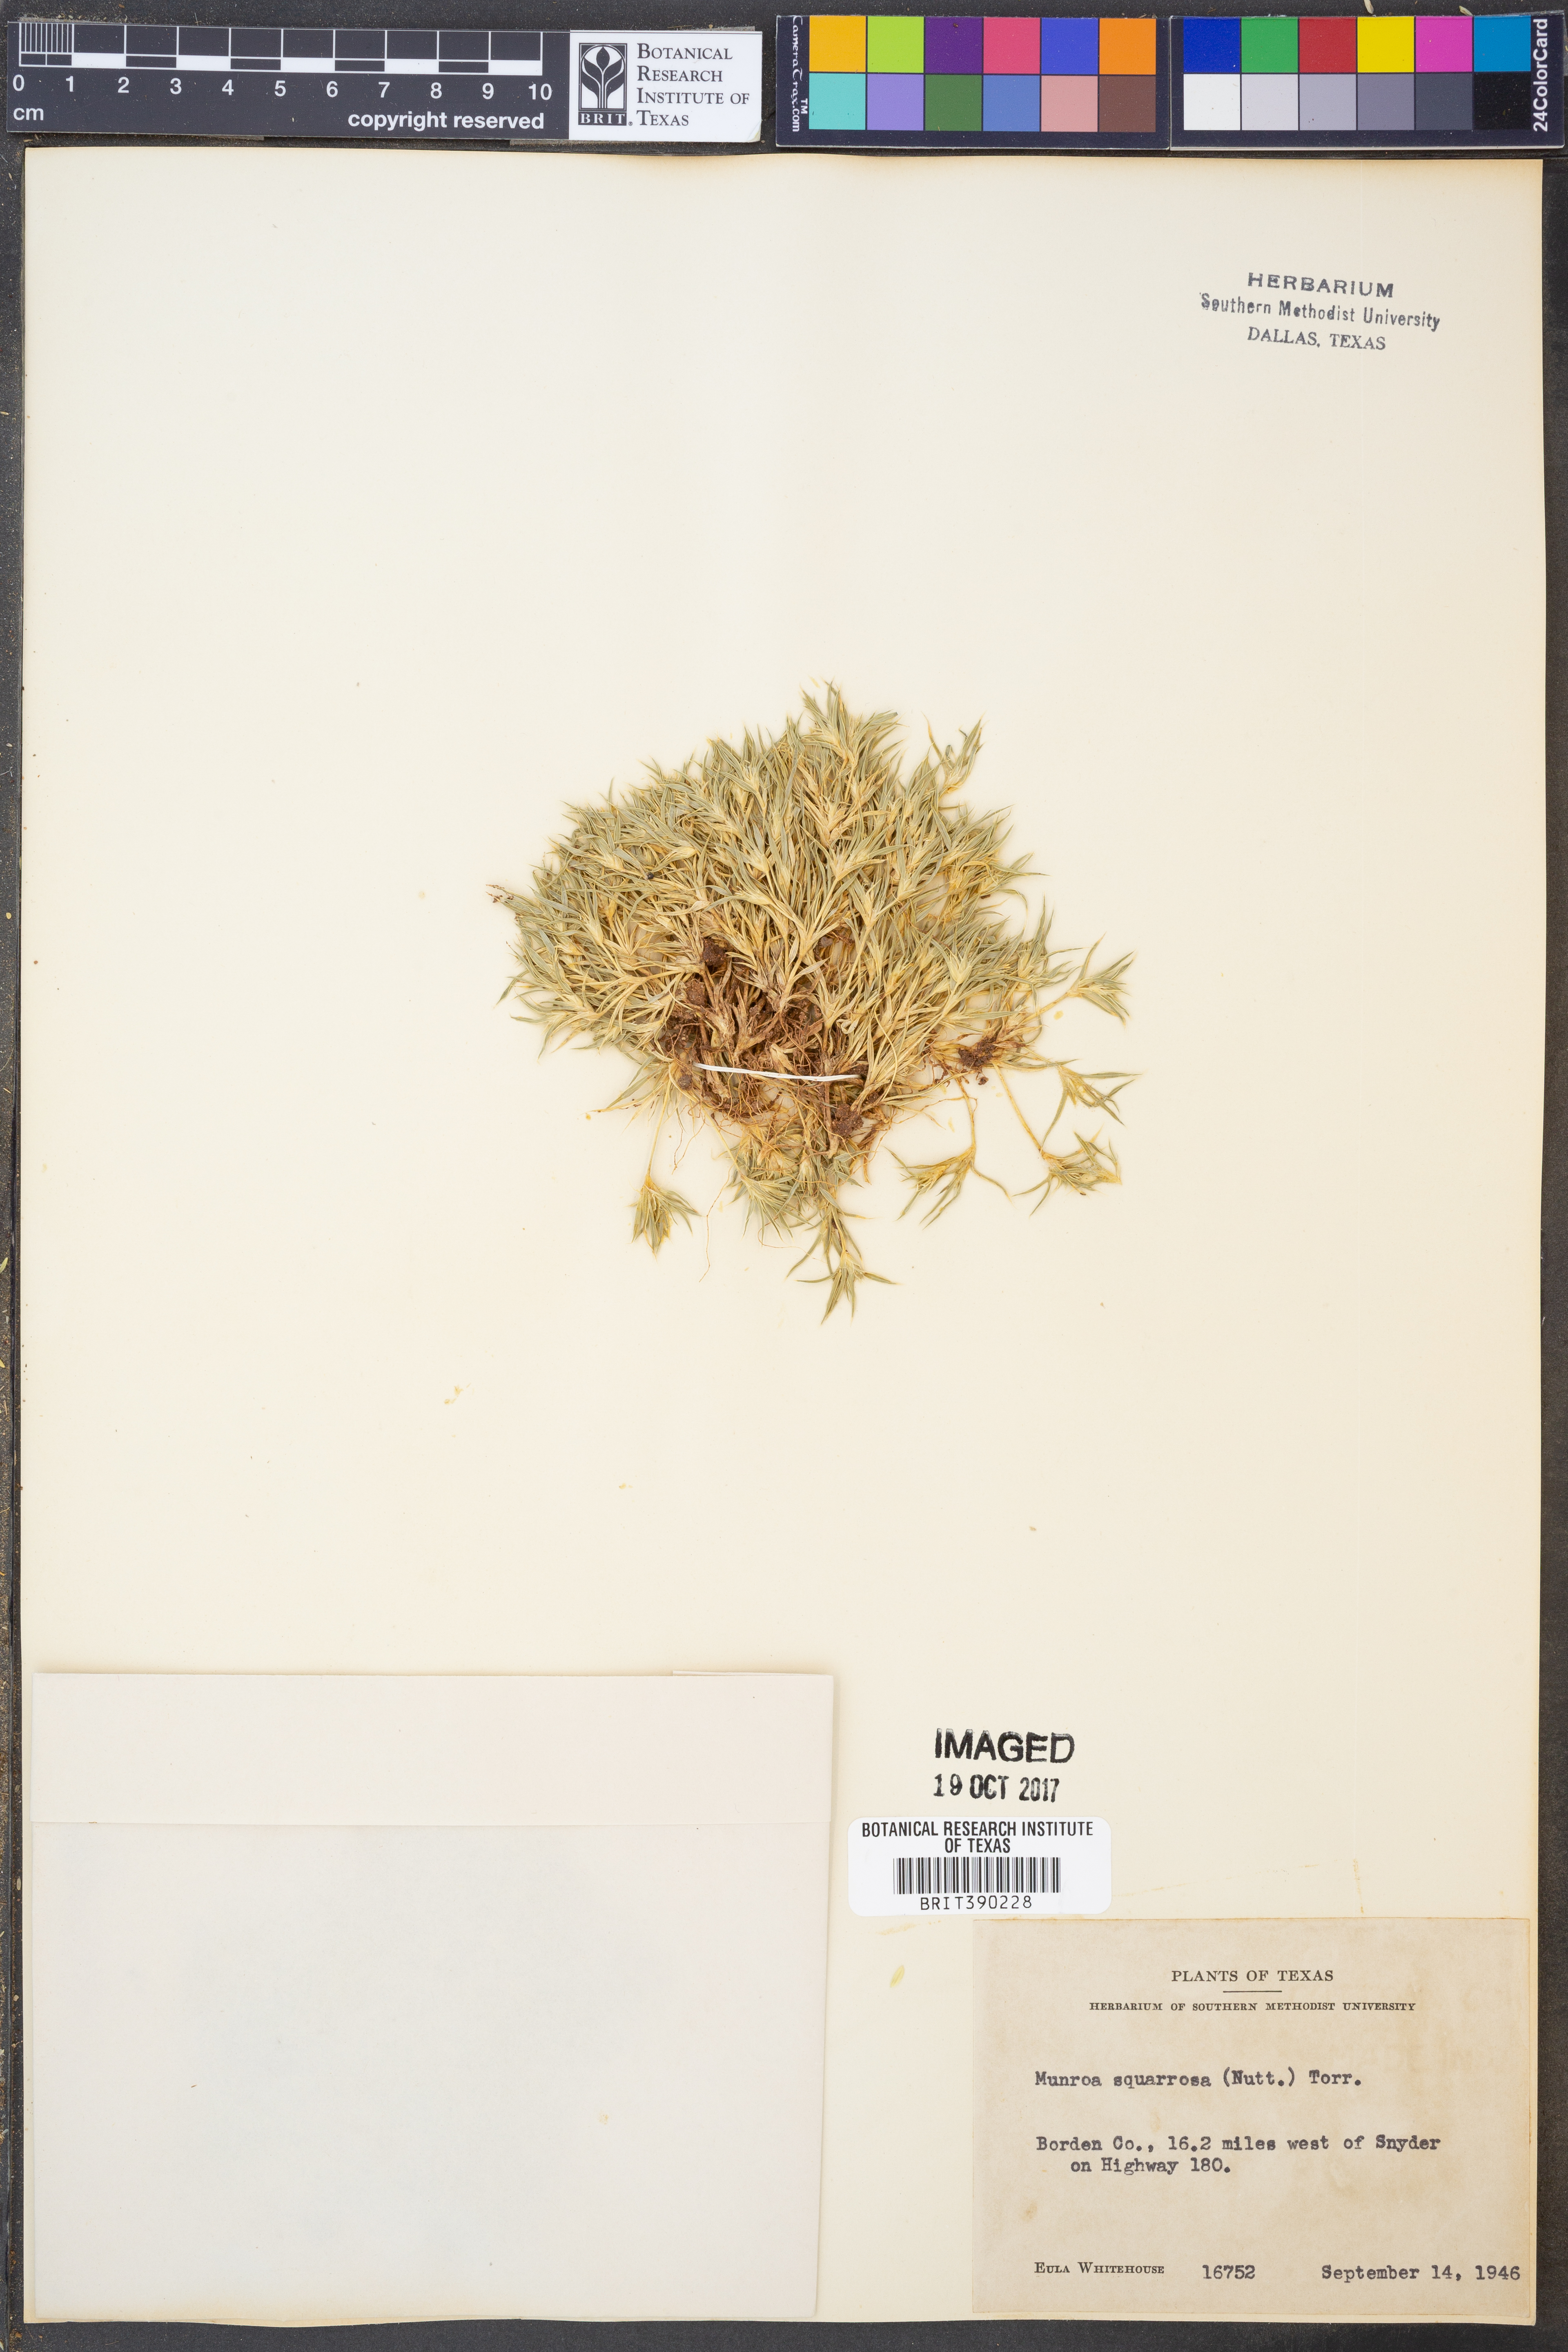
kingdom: Plantae
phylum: Tracheophyta
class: Liliopsida
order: Poales
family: Poaceae
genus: Munroa
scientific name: Munroa squarrosa
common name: False buffalo grass
